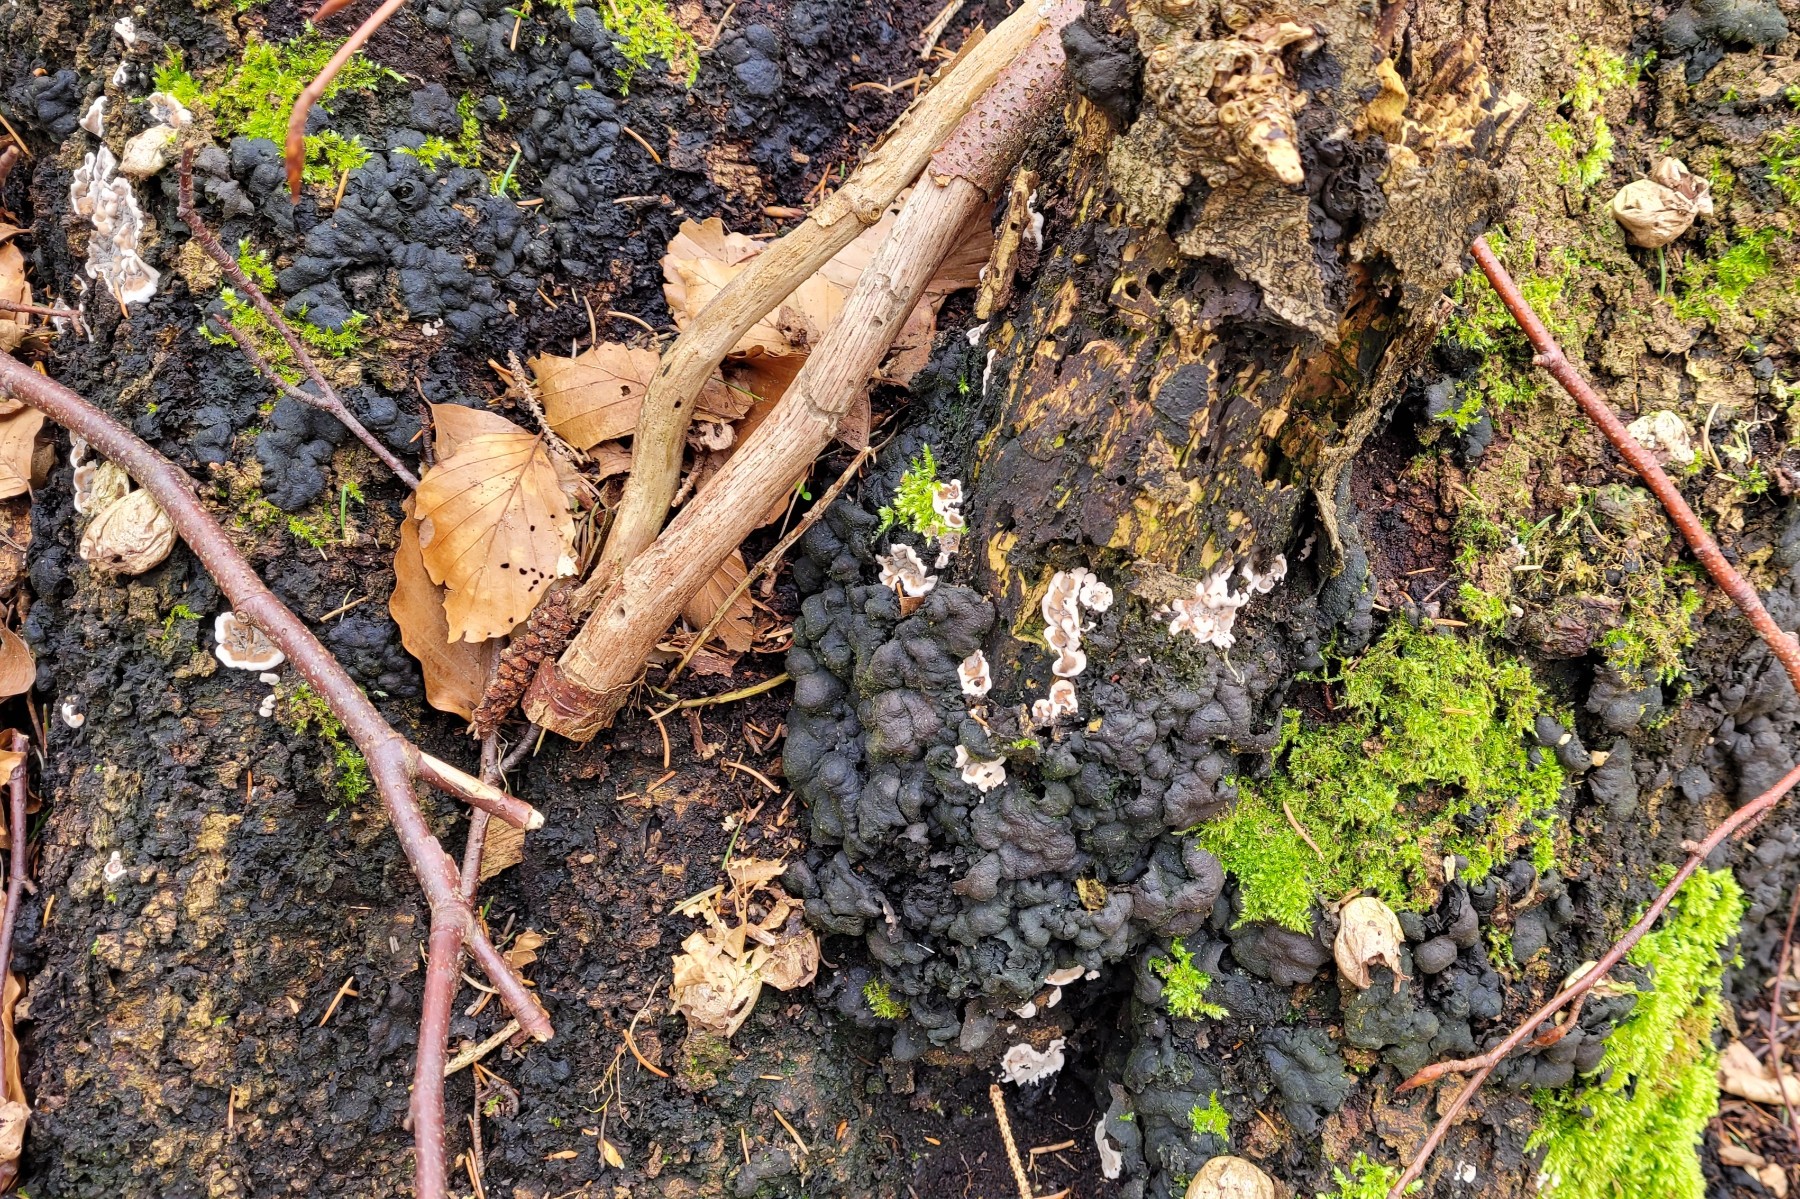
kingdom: Fungi
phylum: Ascomycota
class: Sordariomycetes
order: Xylariales
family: Xylariaceae
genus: Kretzschmaria
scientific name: Kretzschmaria deusta
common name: stor kulsvamp
